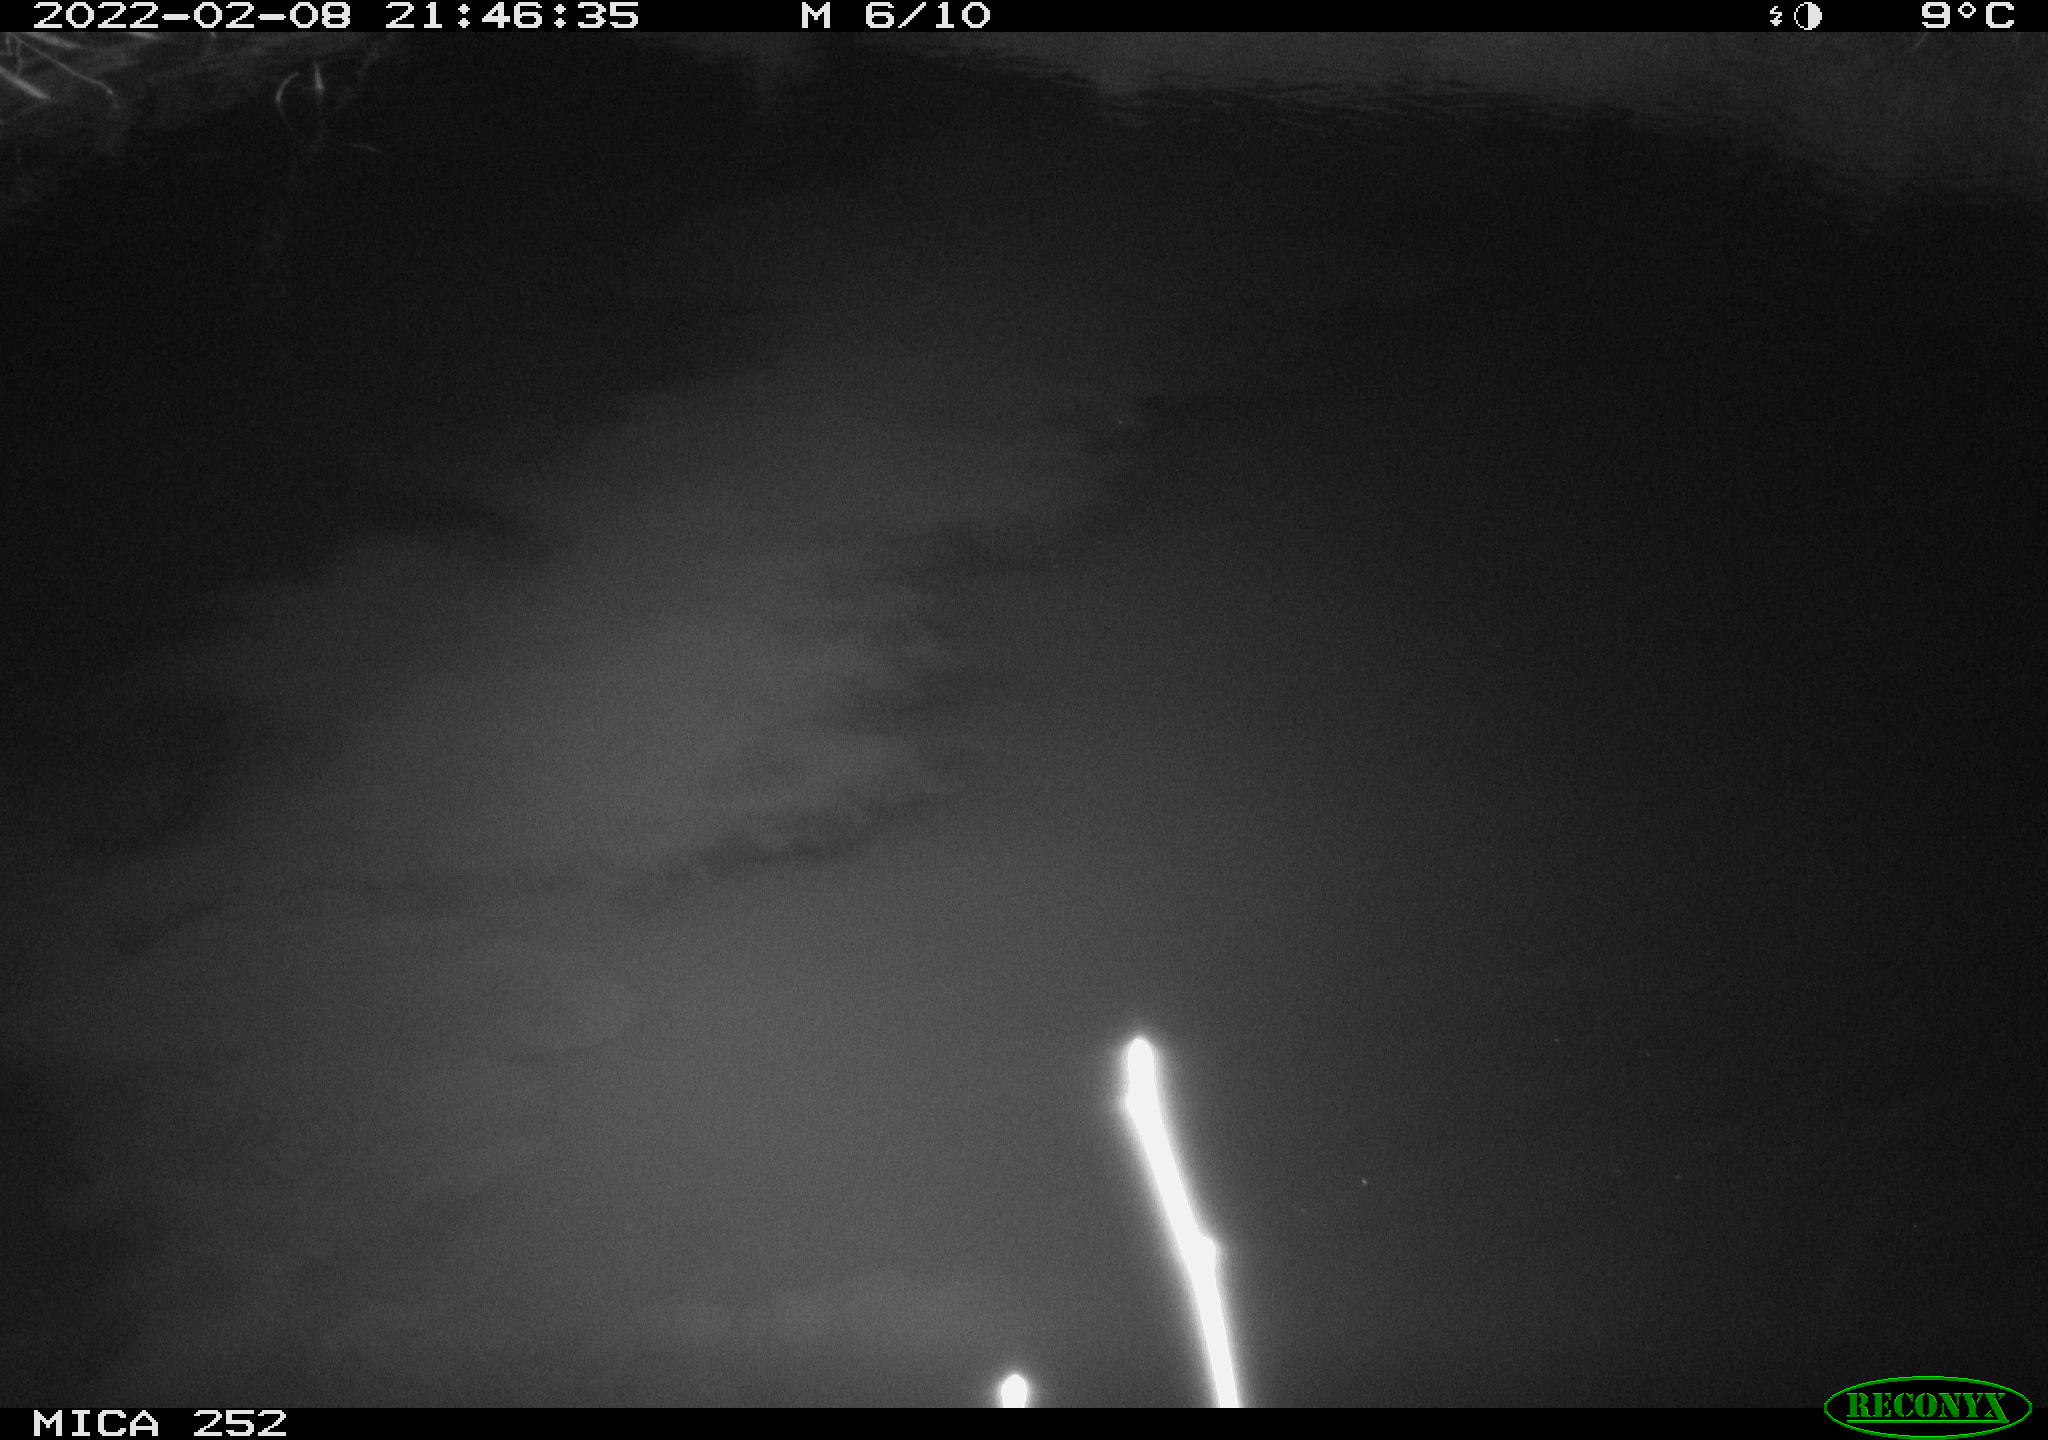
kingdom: Animalia
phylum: Chordata
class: Mammalia
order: Rodentia
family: Castoridae
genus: Castor
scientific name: Castor fiber
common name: Eurasian beaver
